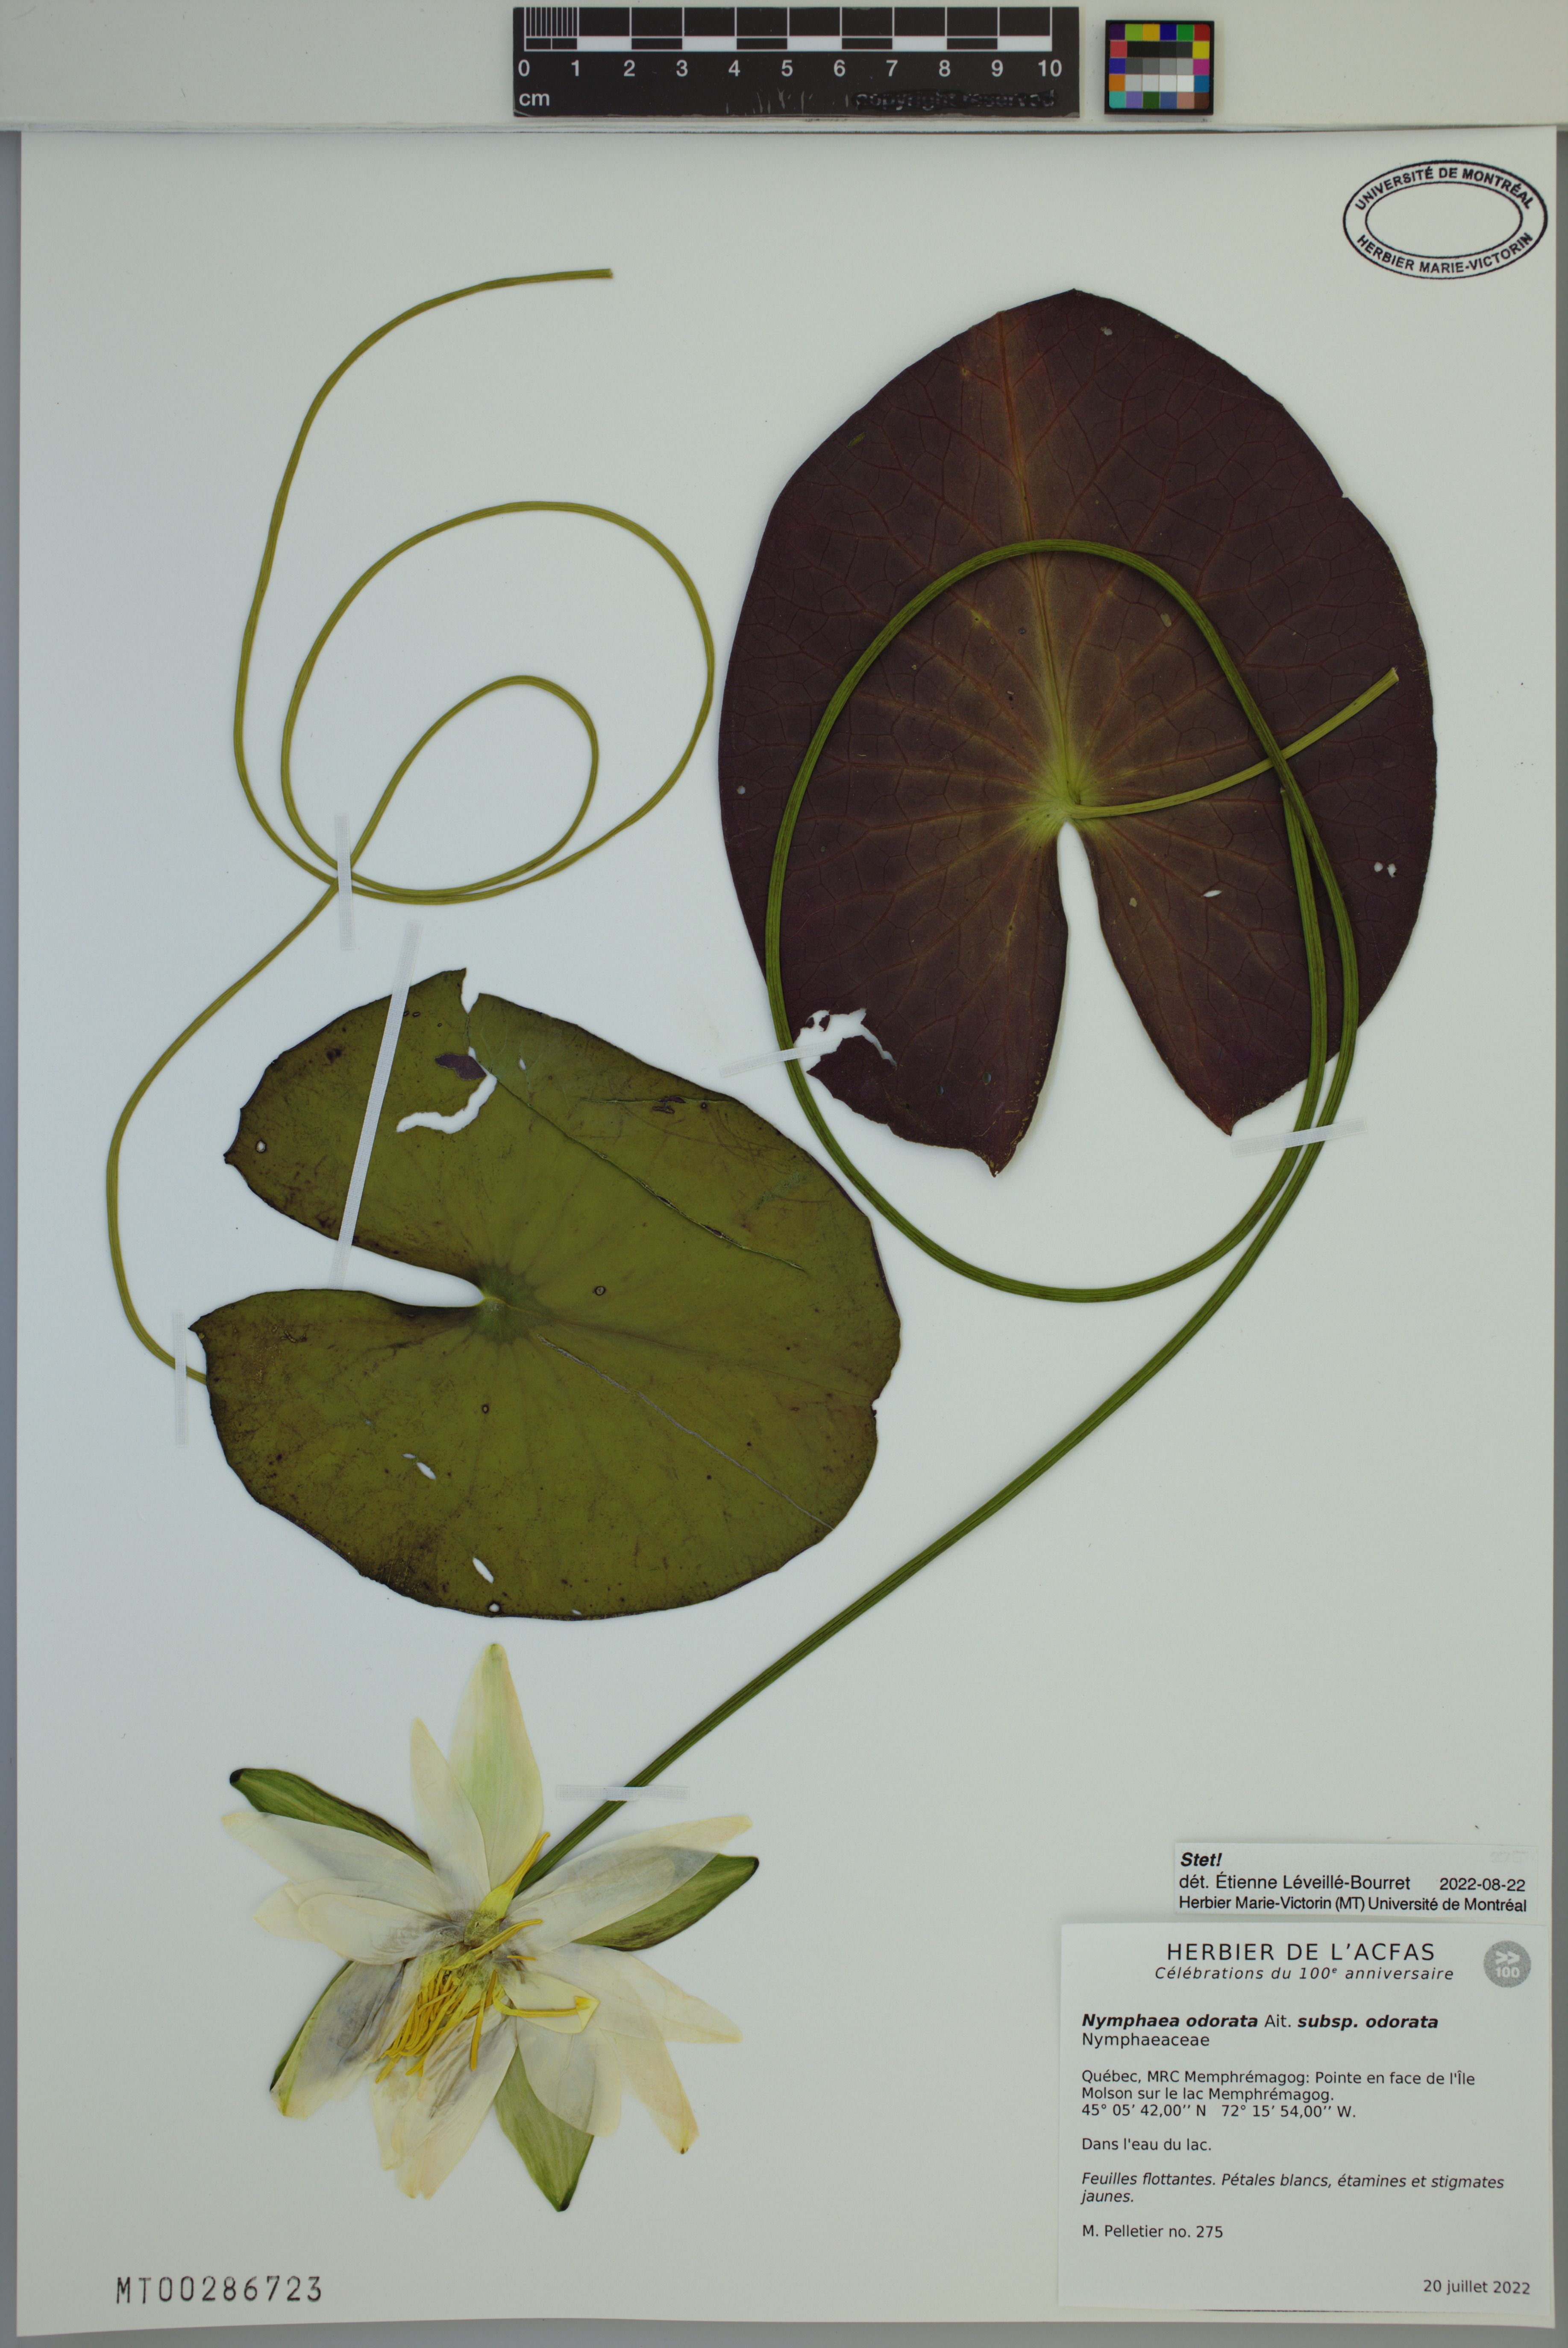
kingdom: Plantae
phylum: Tracheophyta
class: Magnoliopsida
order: Nymphaeales
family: Nymphaeaceae
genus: Nymphaea
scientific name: Nymphaea odorata
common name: Fragrant water-lily
